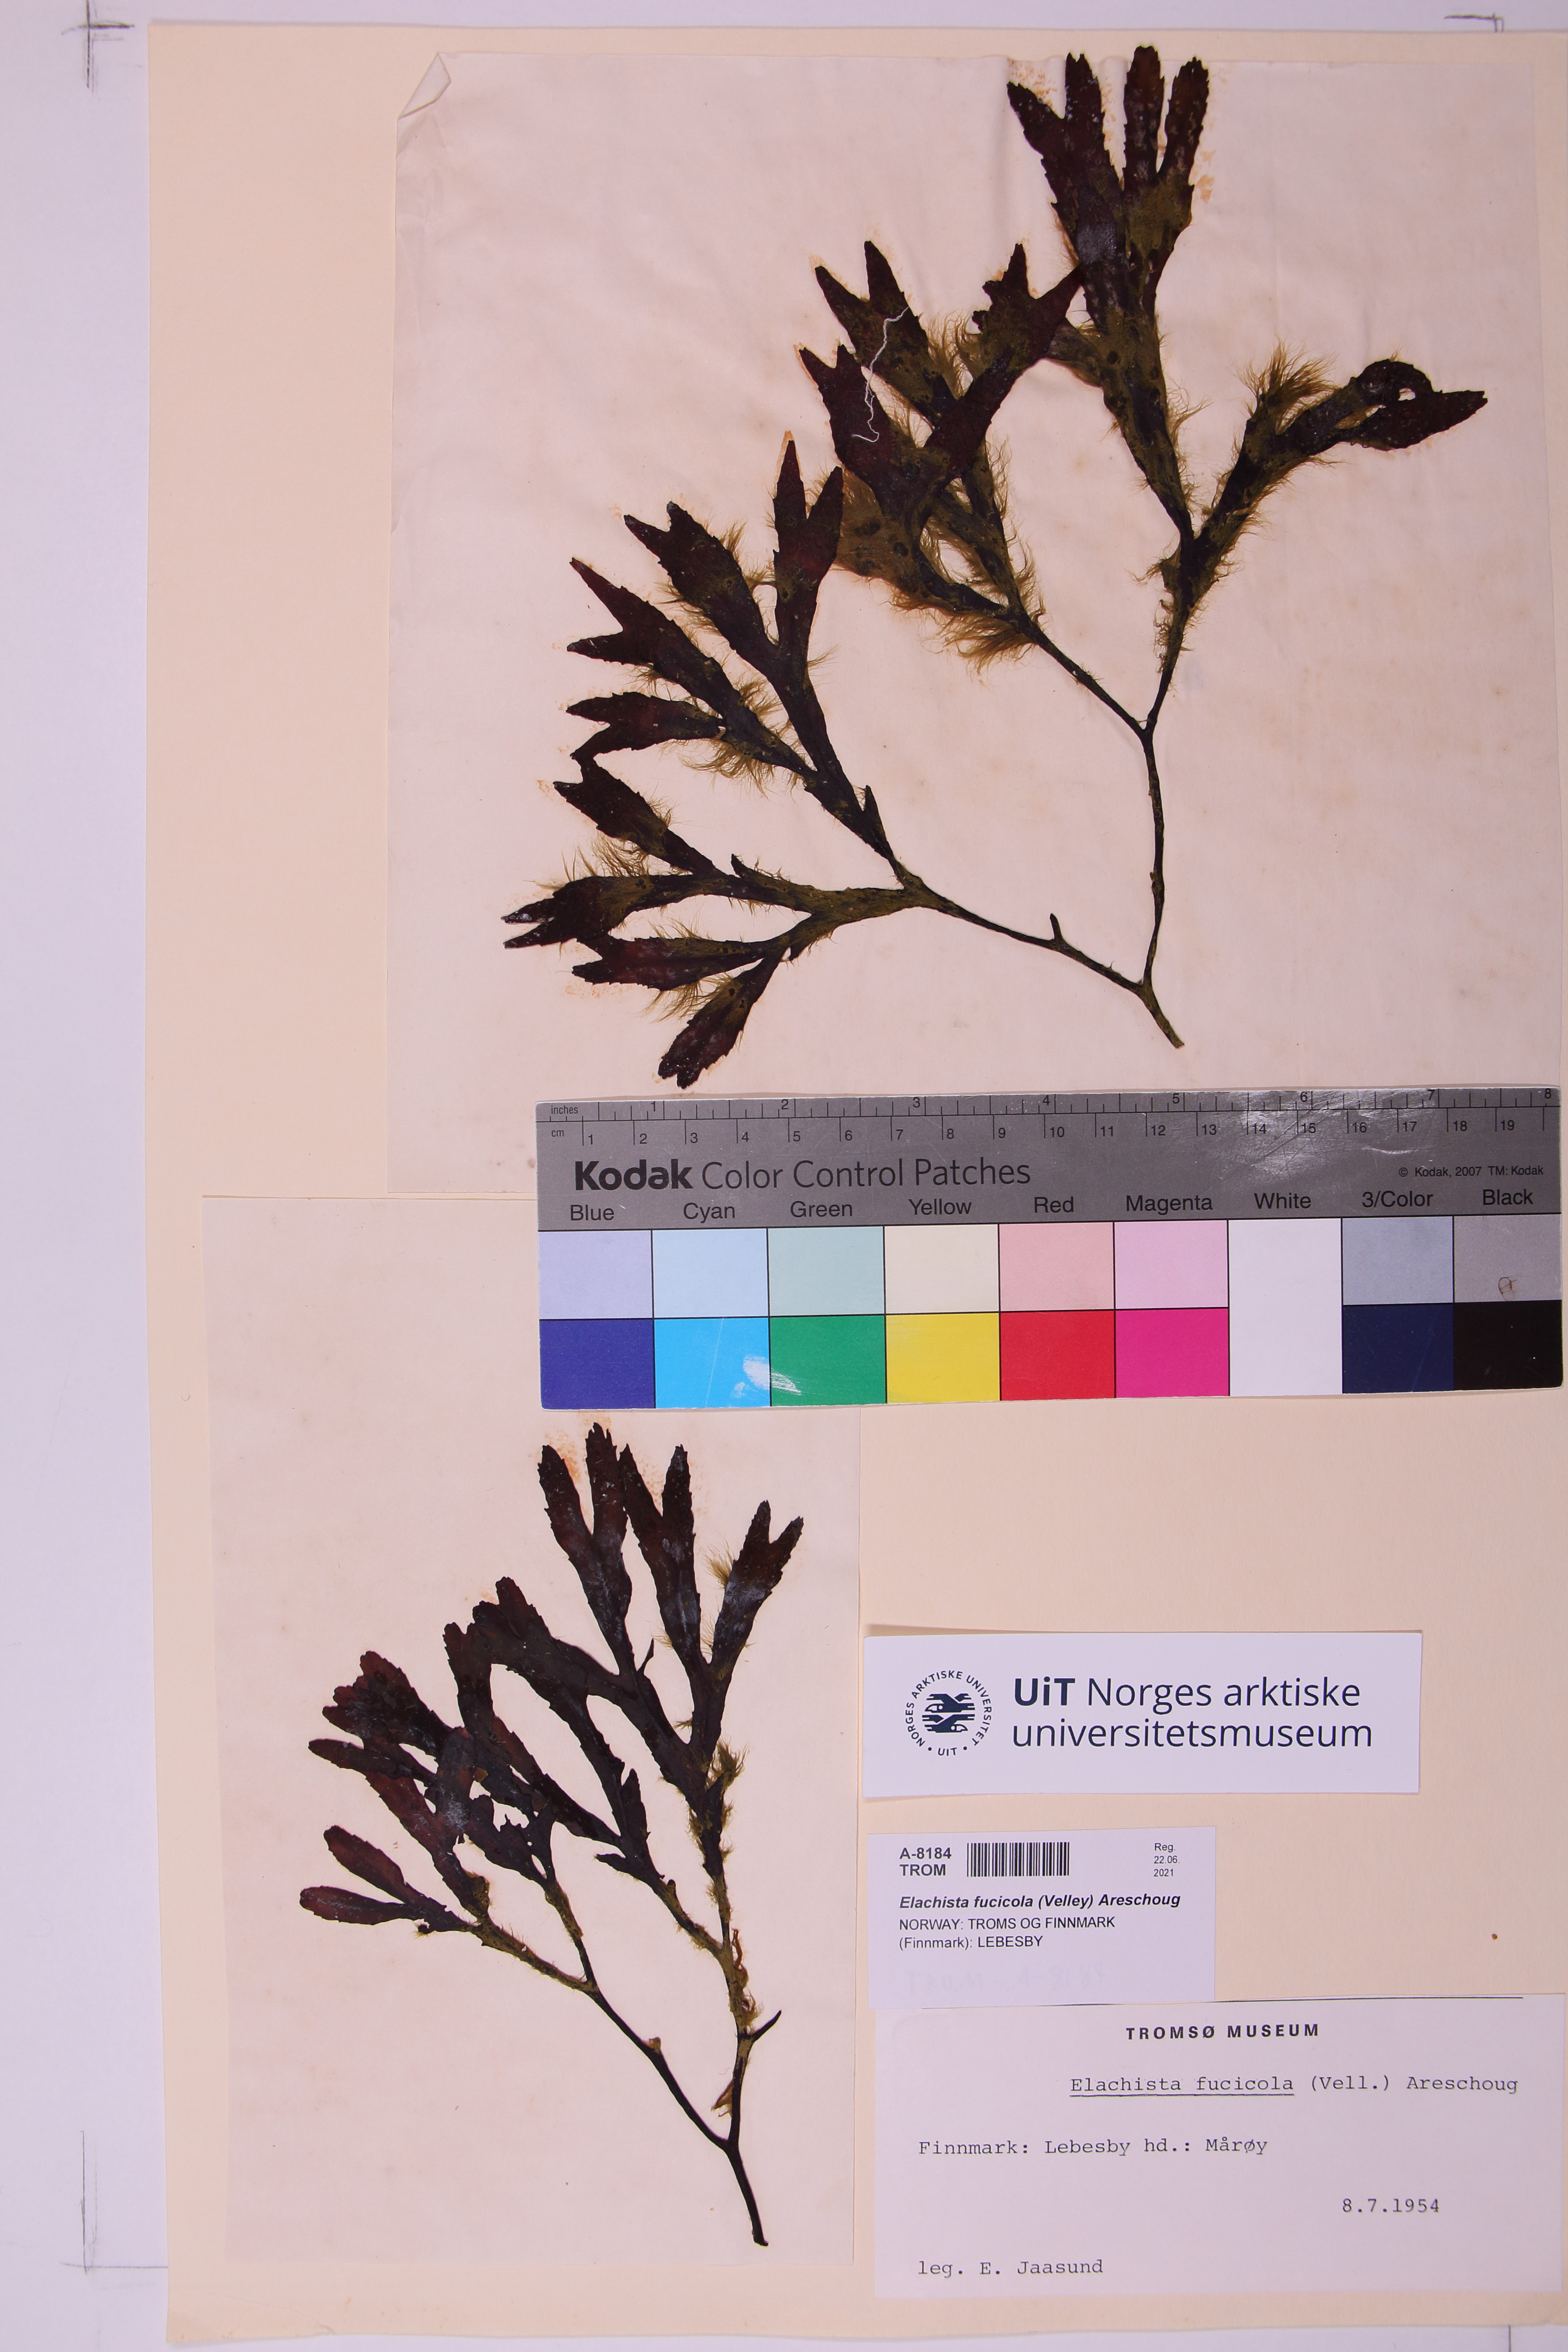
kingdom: Chromista
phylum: Ochrophyta
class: Phaeophyceae
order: Ectocarpales
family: Chordariaceae
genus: Elachista
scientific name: Elachista fucicola
